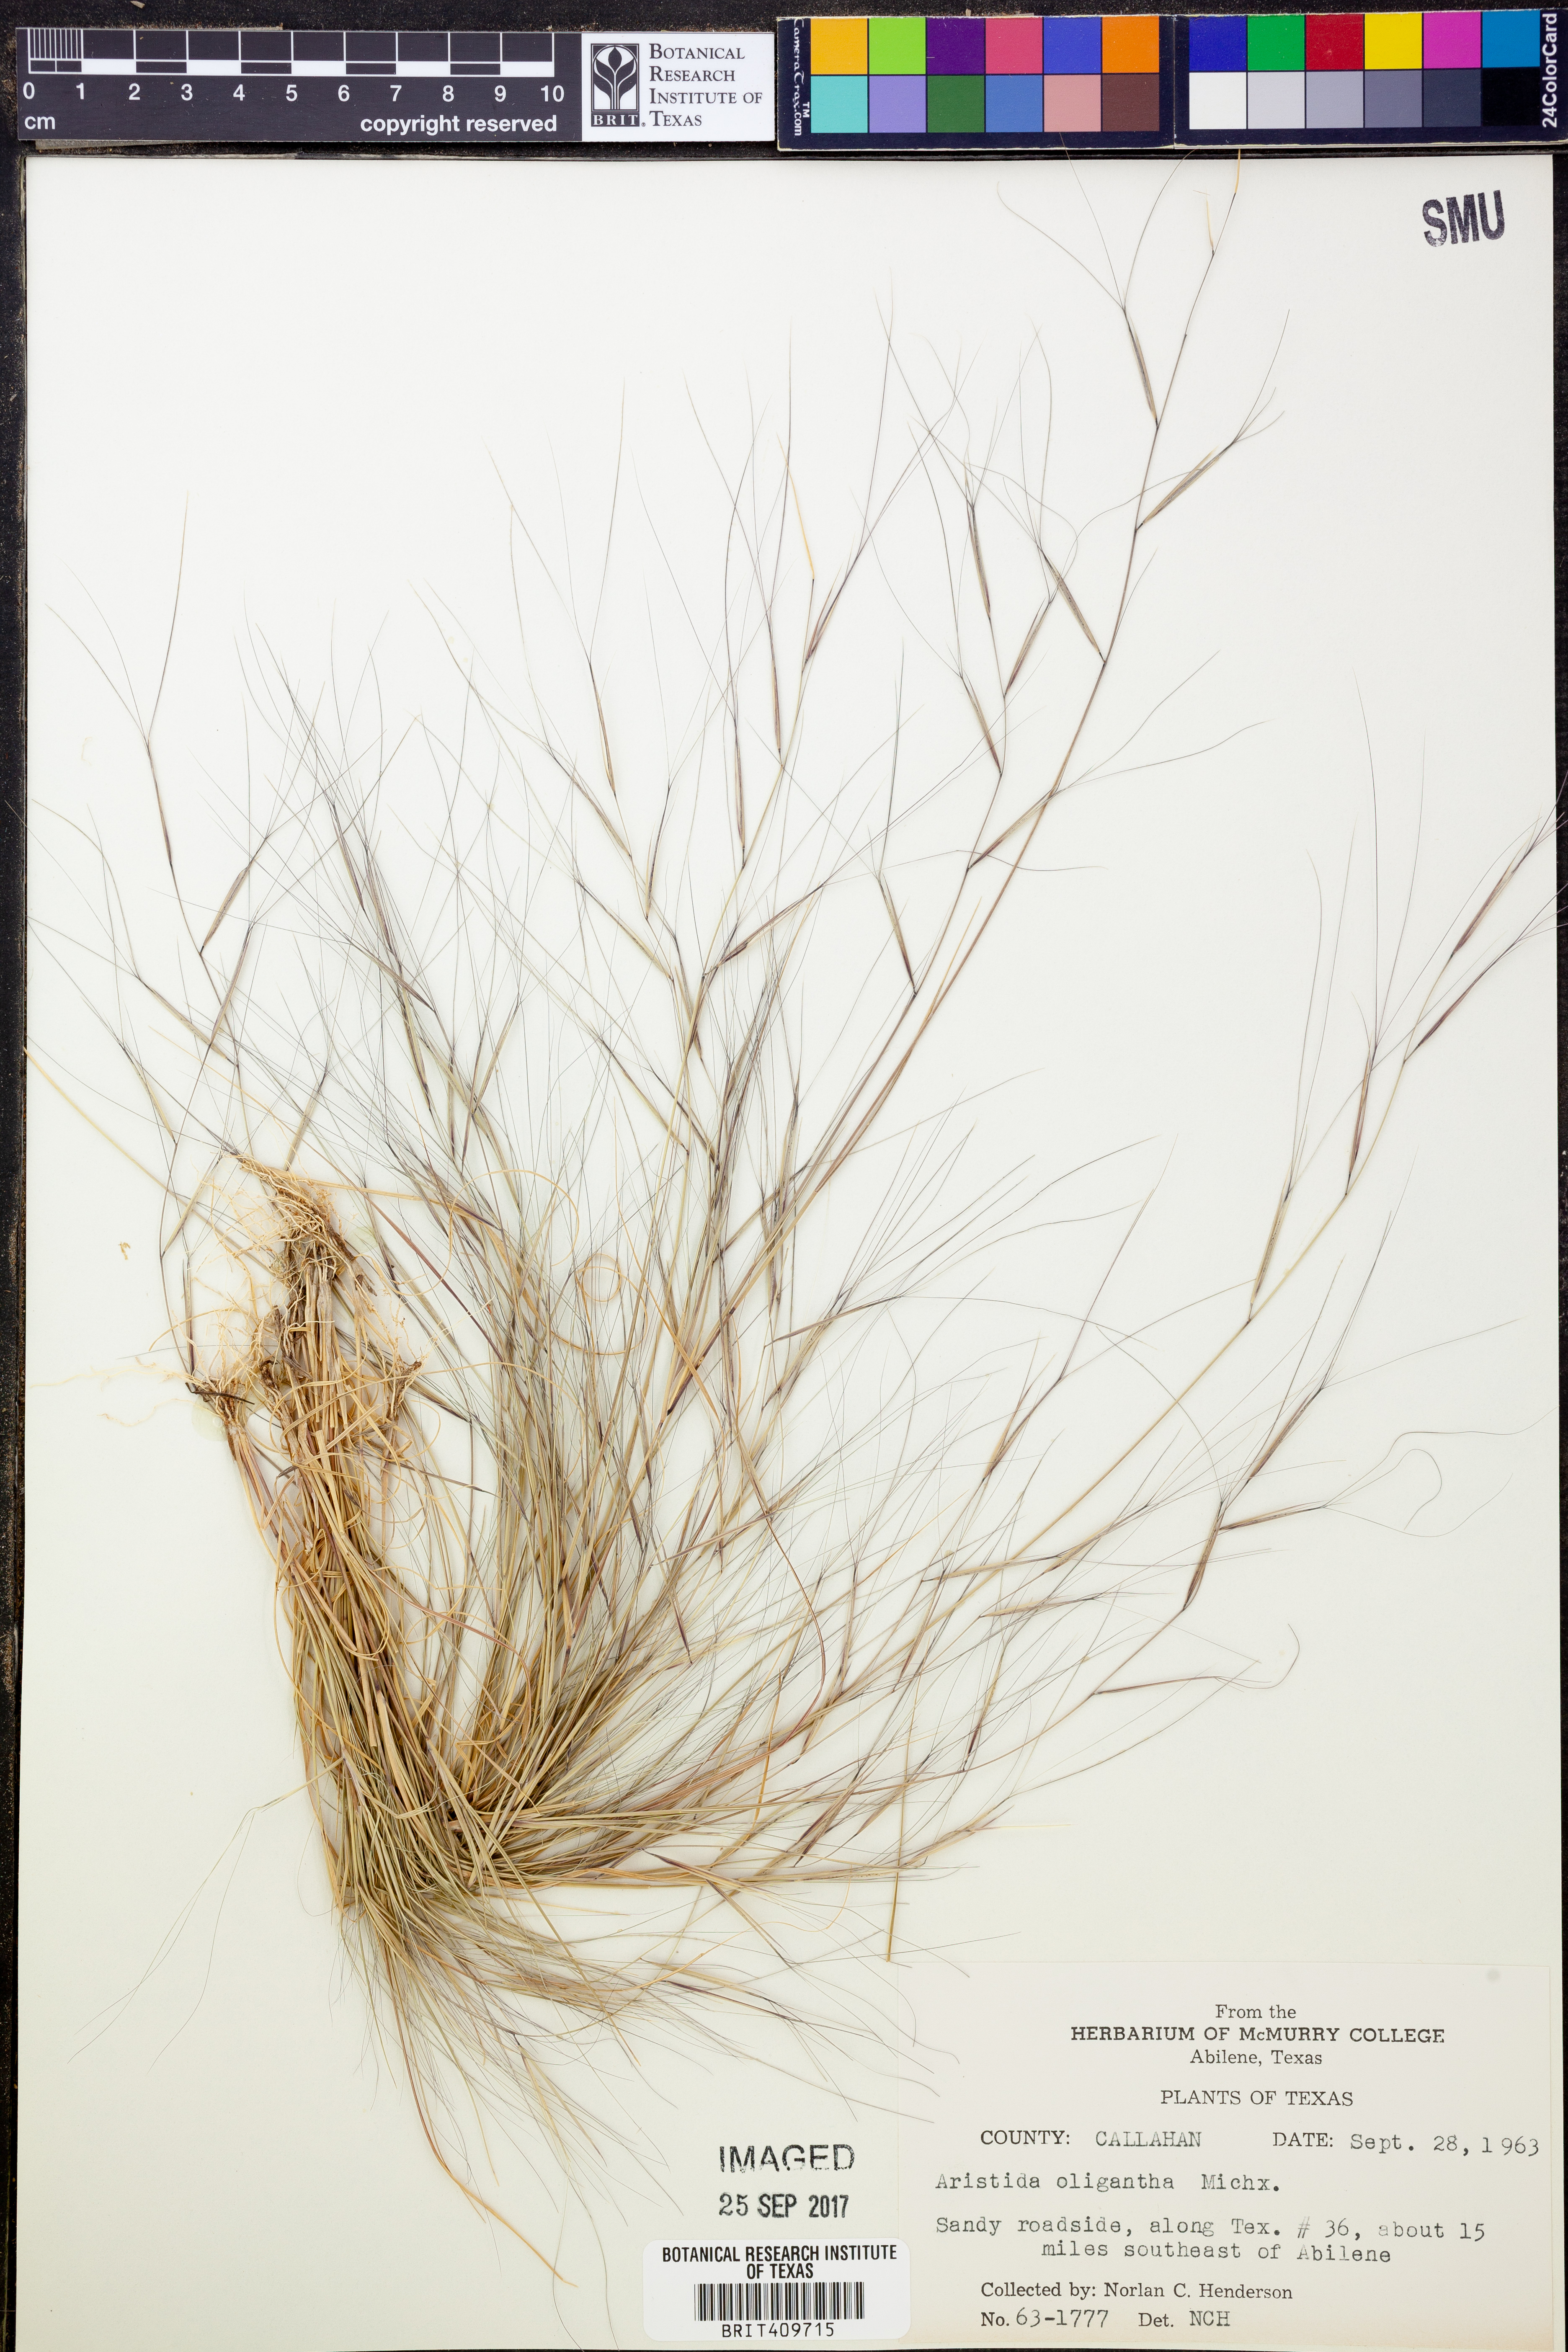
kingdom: Plantae
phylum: Tracheophyta
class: Liliopsida
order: Poales
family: Poaceae
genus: Aristida
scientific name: Aristida oligantha
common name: Few-flowered aristida
